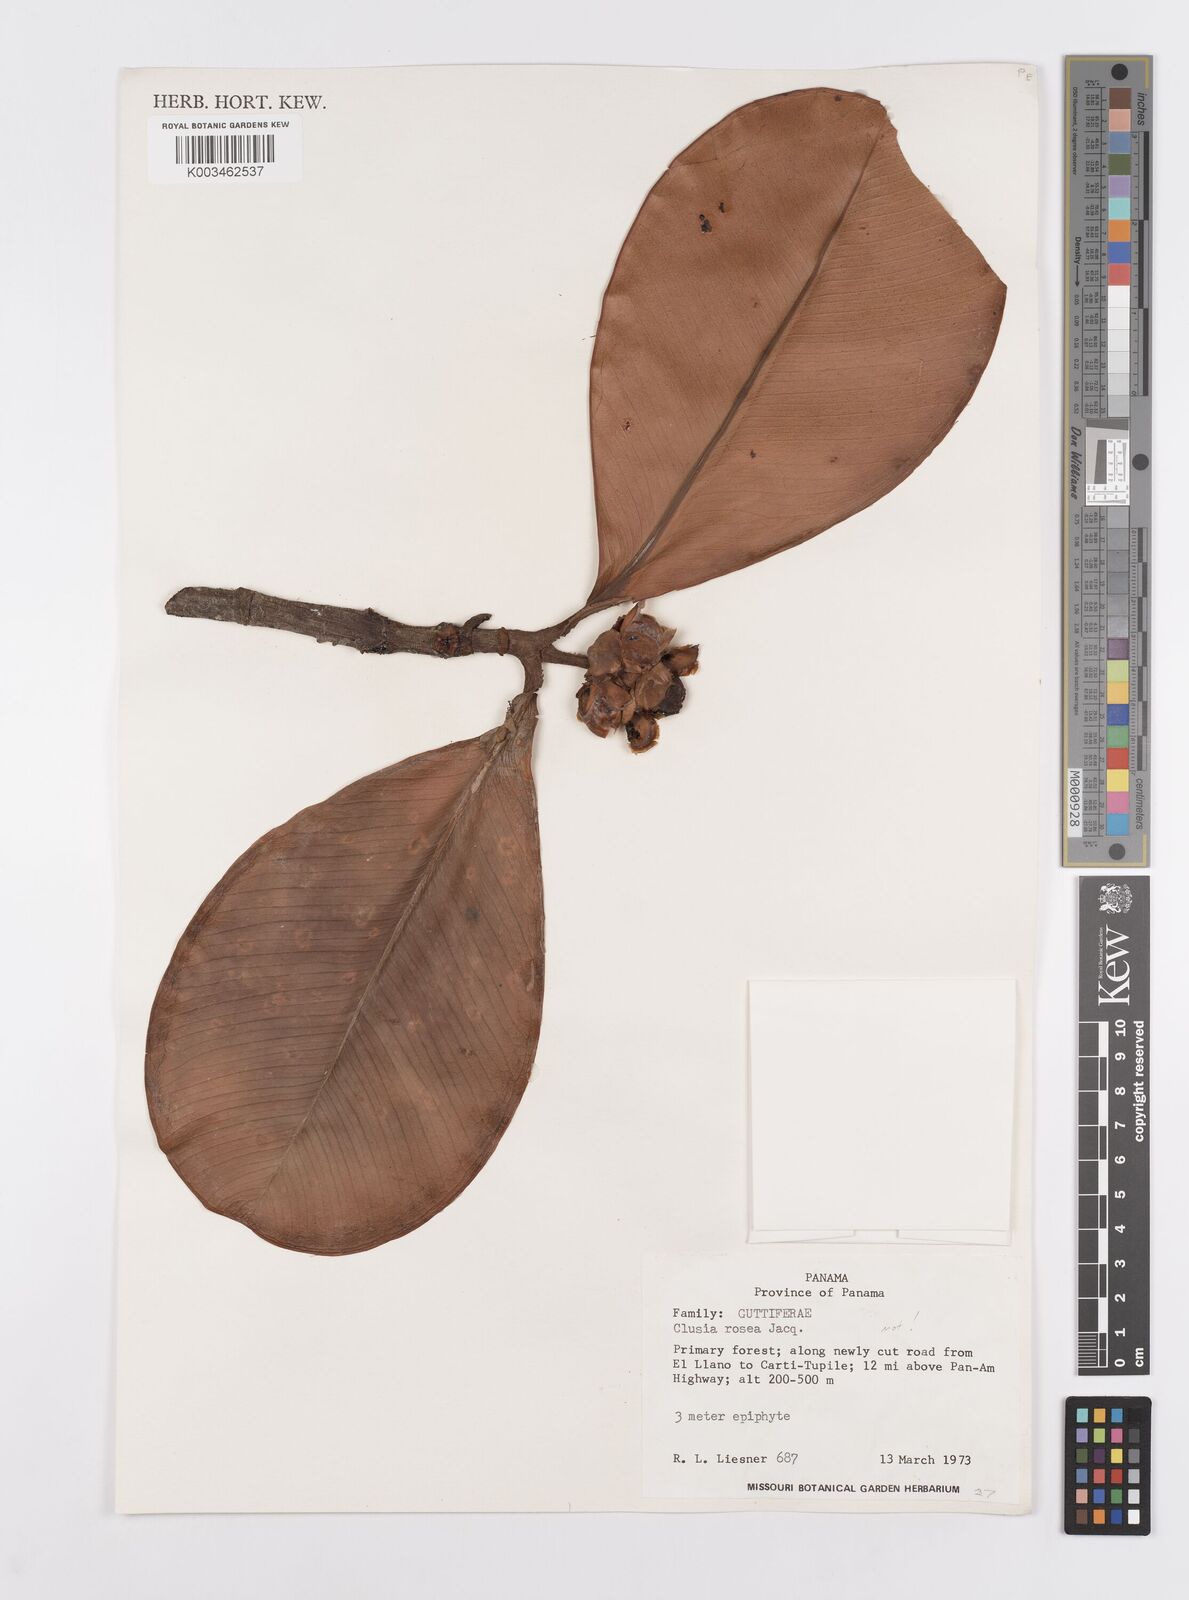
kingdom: Plantae
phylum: Tracheophyta
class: Magnoliopsida
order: Malpighiales
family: Clusiaceae
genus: Clusia
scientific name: Clusia rosea
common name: Scotch attorney
